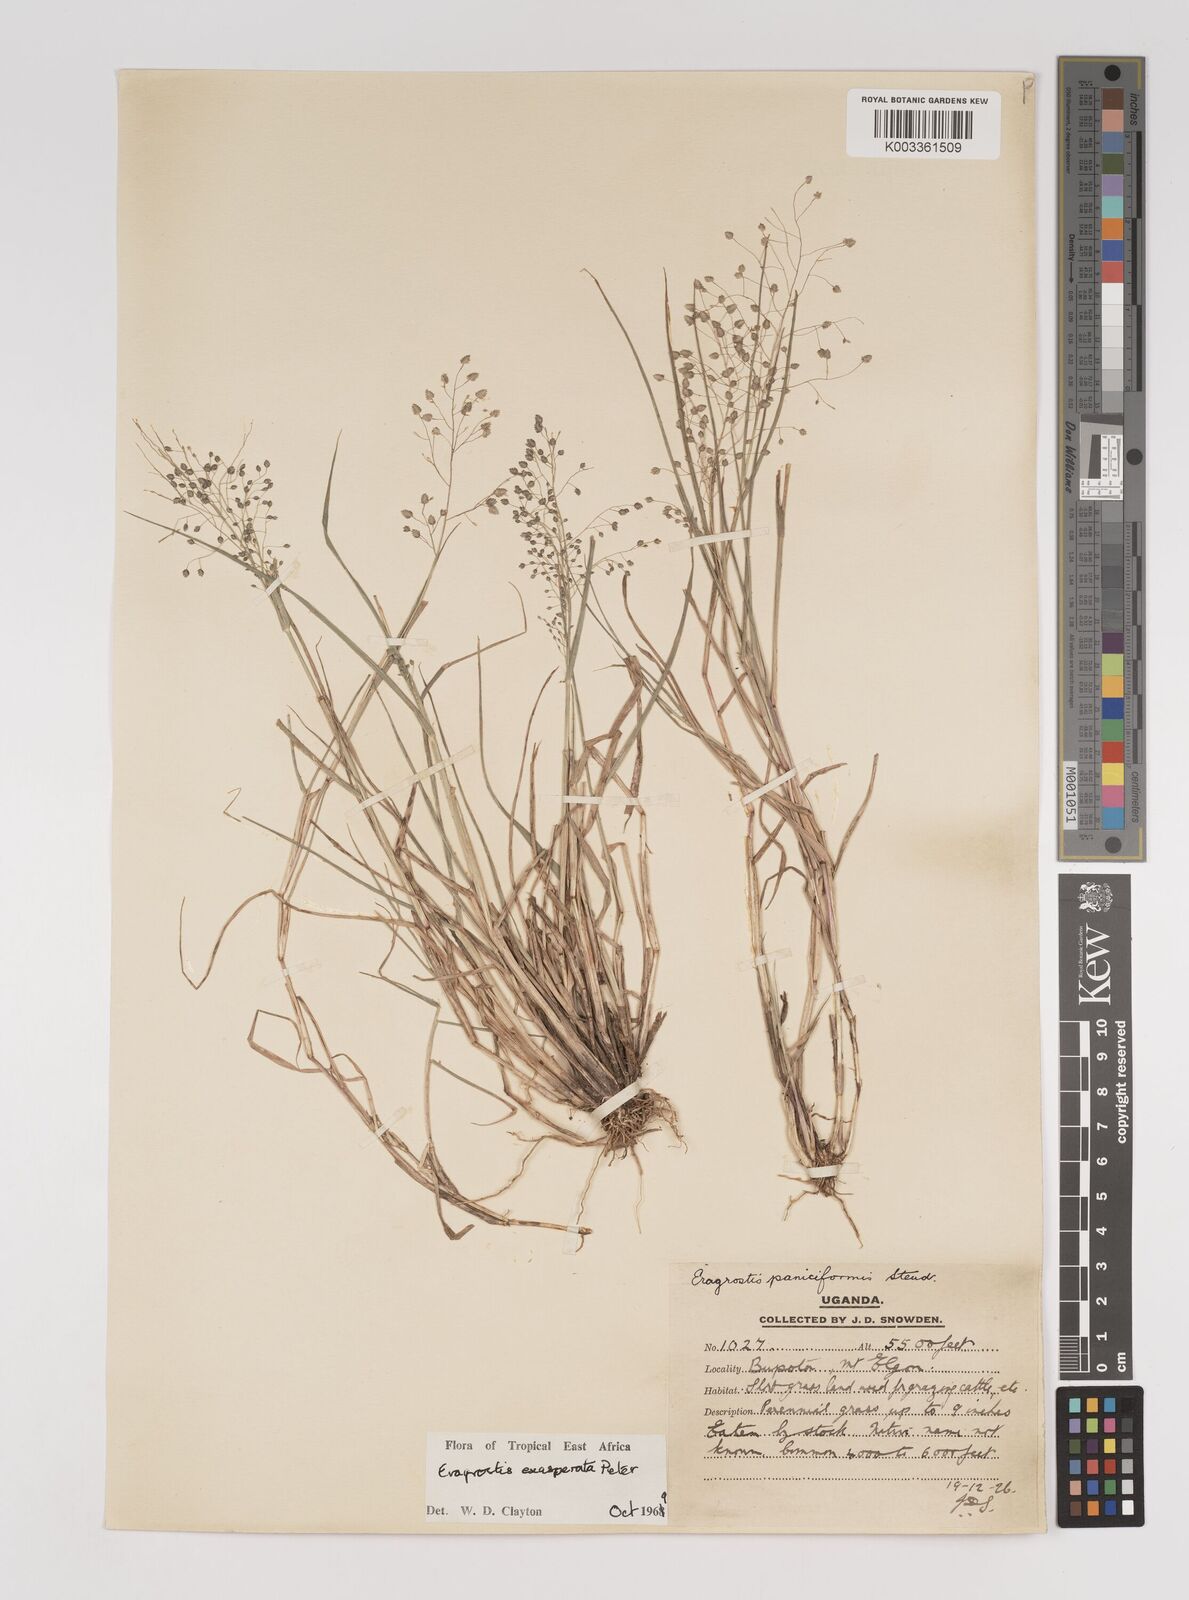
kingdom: Plantae
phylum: Tracheophyta
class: Liliopsida
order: Poales
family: Poaceae
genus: Eragrostis
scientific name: Eragrostis exasperata
